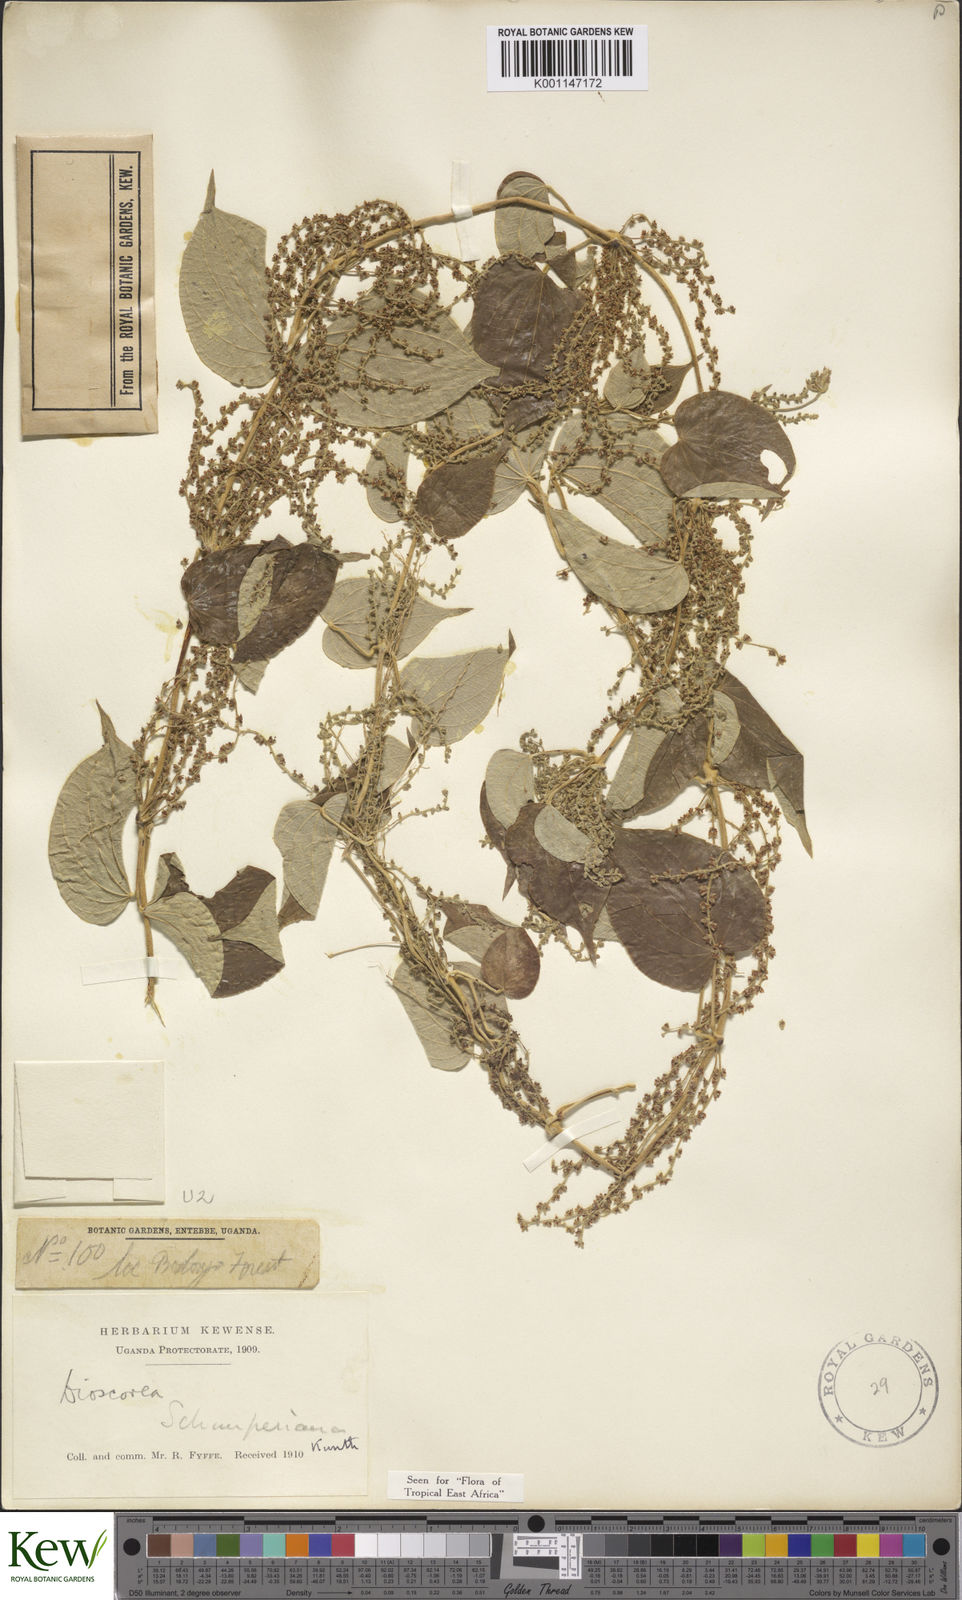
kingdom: Plantae
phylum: Tracheophyta
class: Liliopsida
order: Dioscoreales
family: Dioscoreaceae
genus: Dioscorea
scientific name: Dioscorea schimperiana
